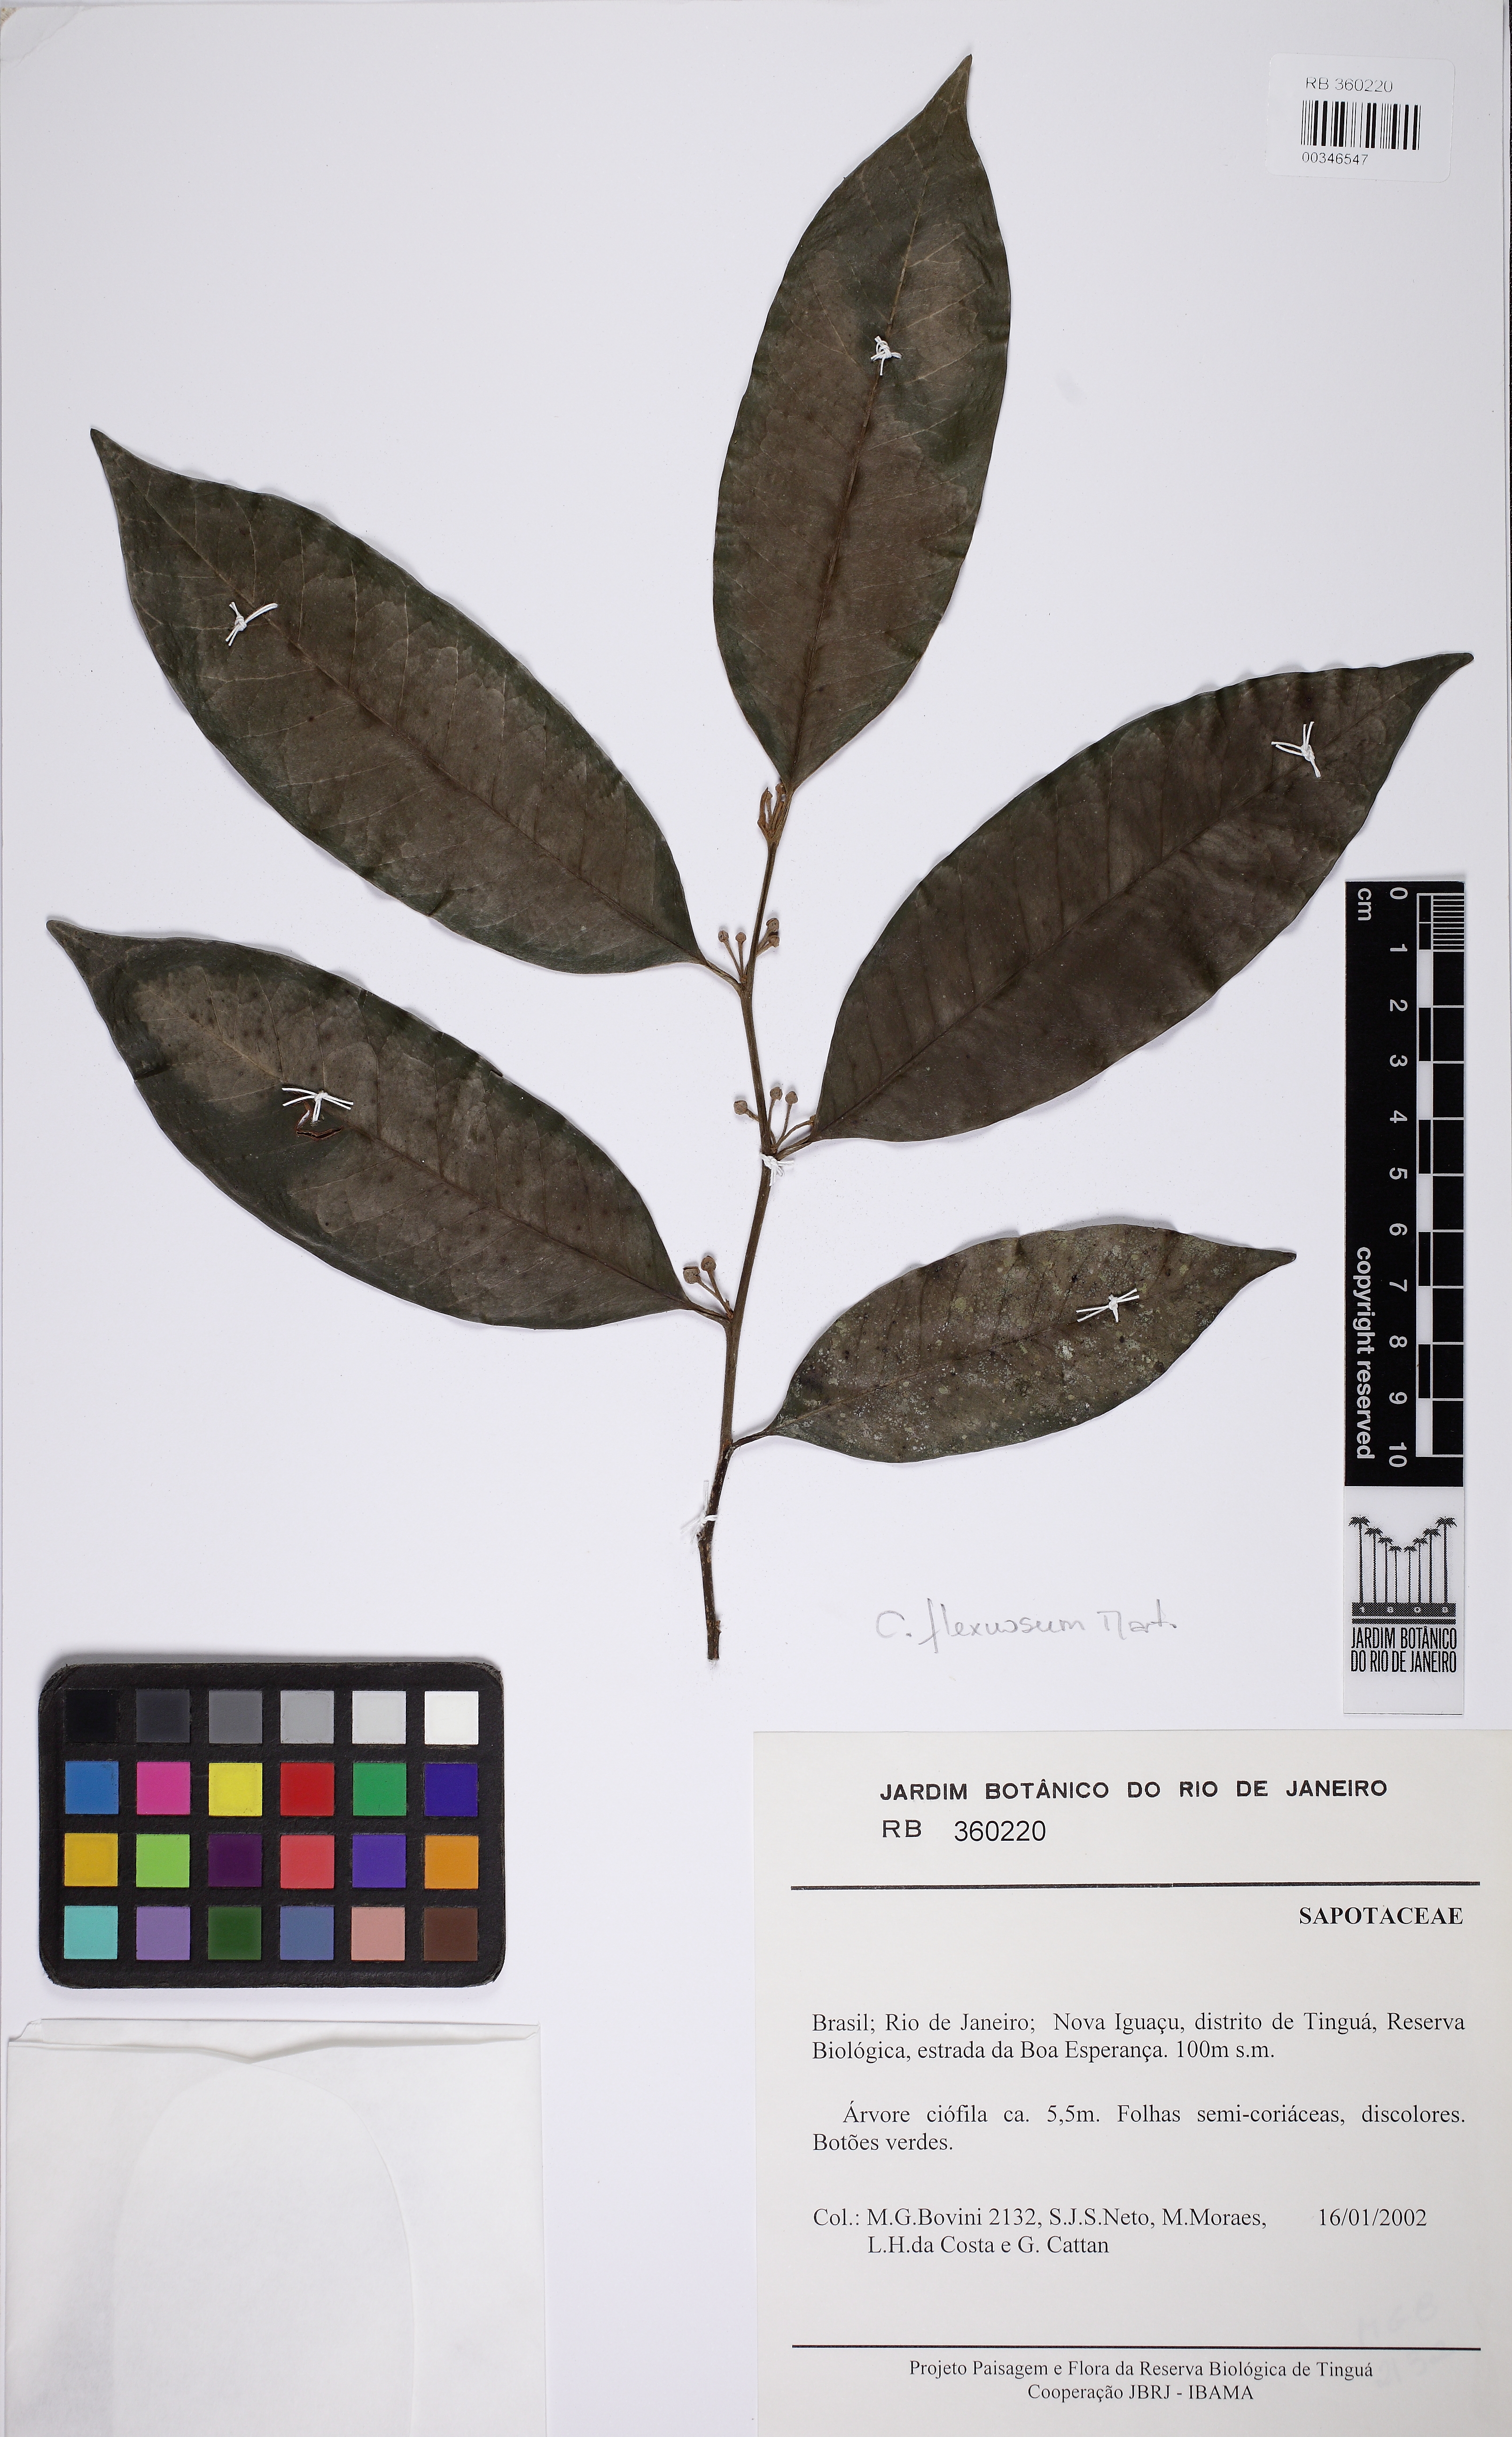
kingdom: Plantae
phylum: Tracheophyta
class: Magnoliopsida
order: Ericales
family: Sapotaceae
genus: Chrysophyllum
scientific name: Chrysophyllum flexuosum
